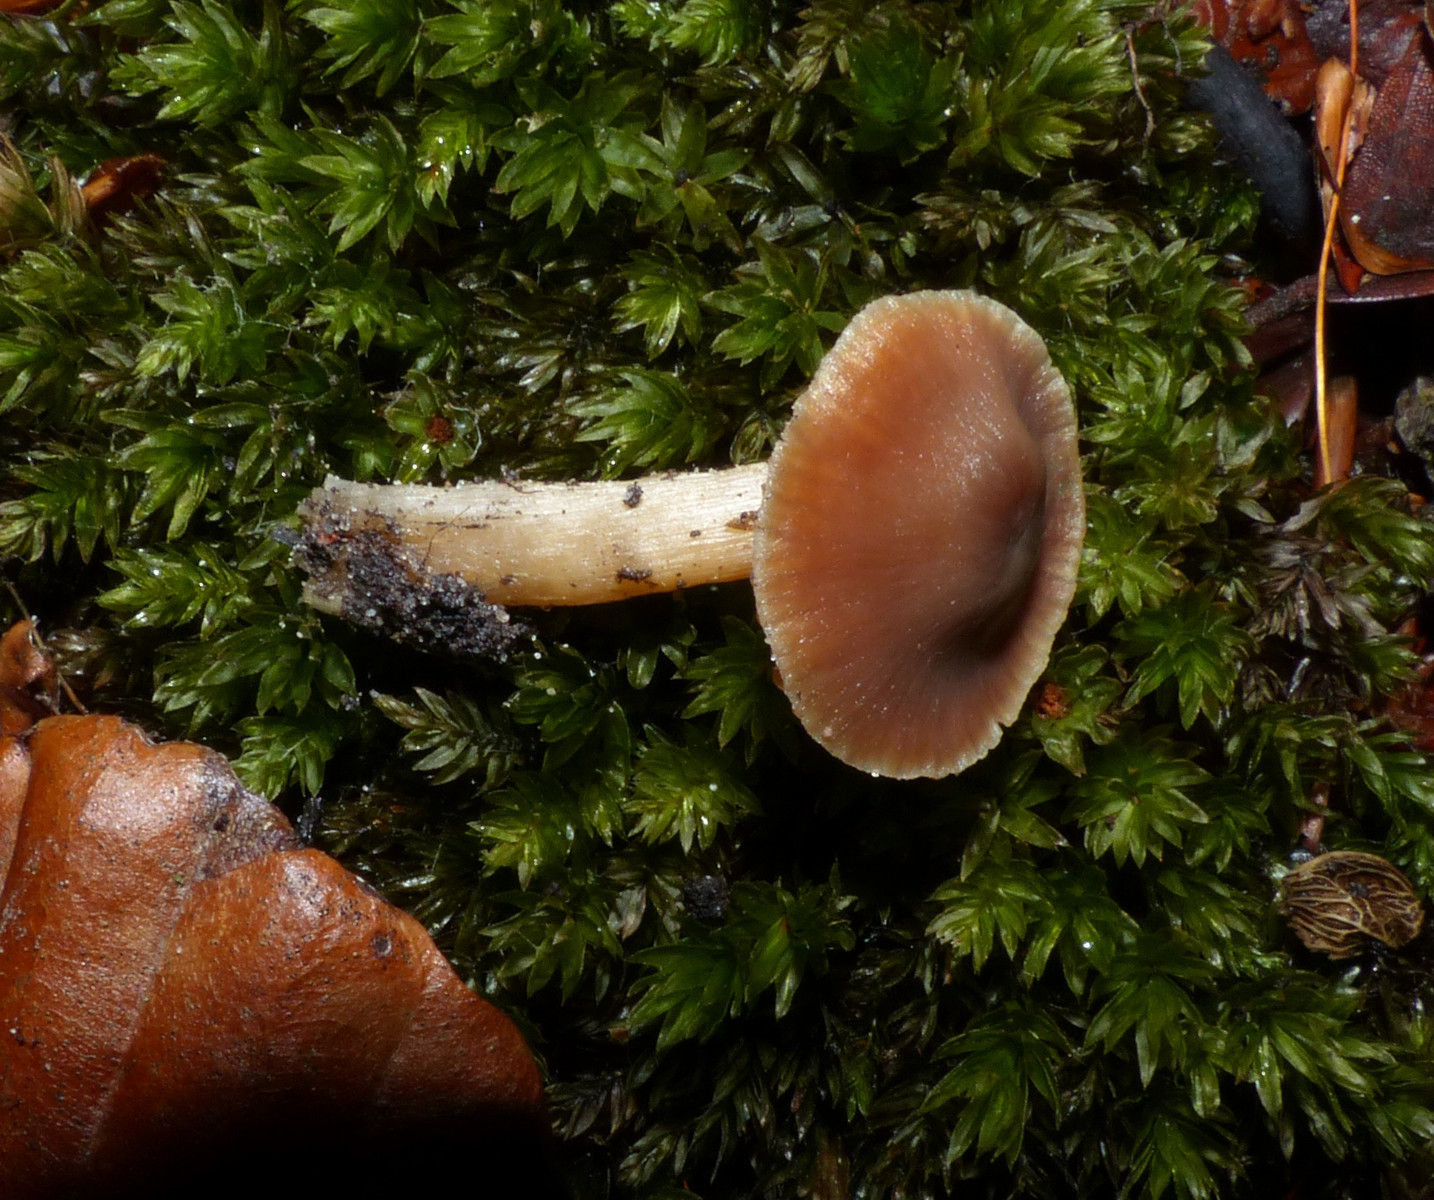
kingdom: Fungi
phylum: Basidiomycota
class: Agaricomycetes
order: Agaricales
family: Cortinariaceae
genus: Cortinarius
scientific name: Cortinarius
